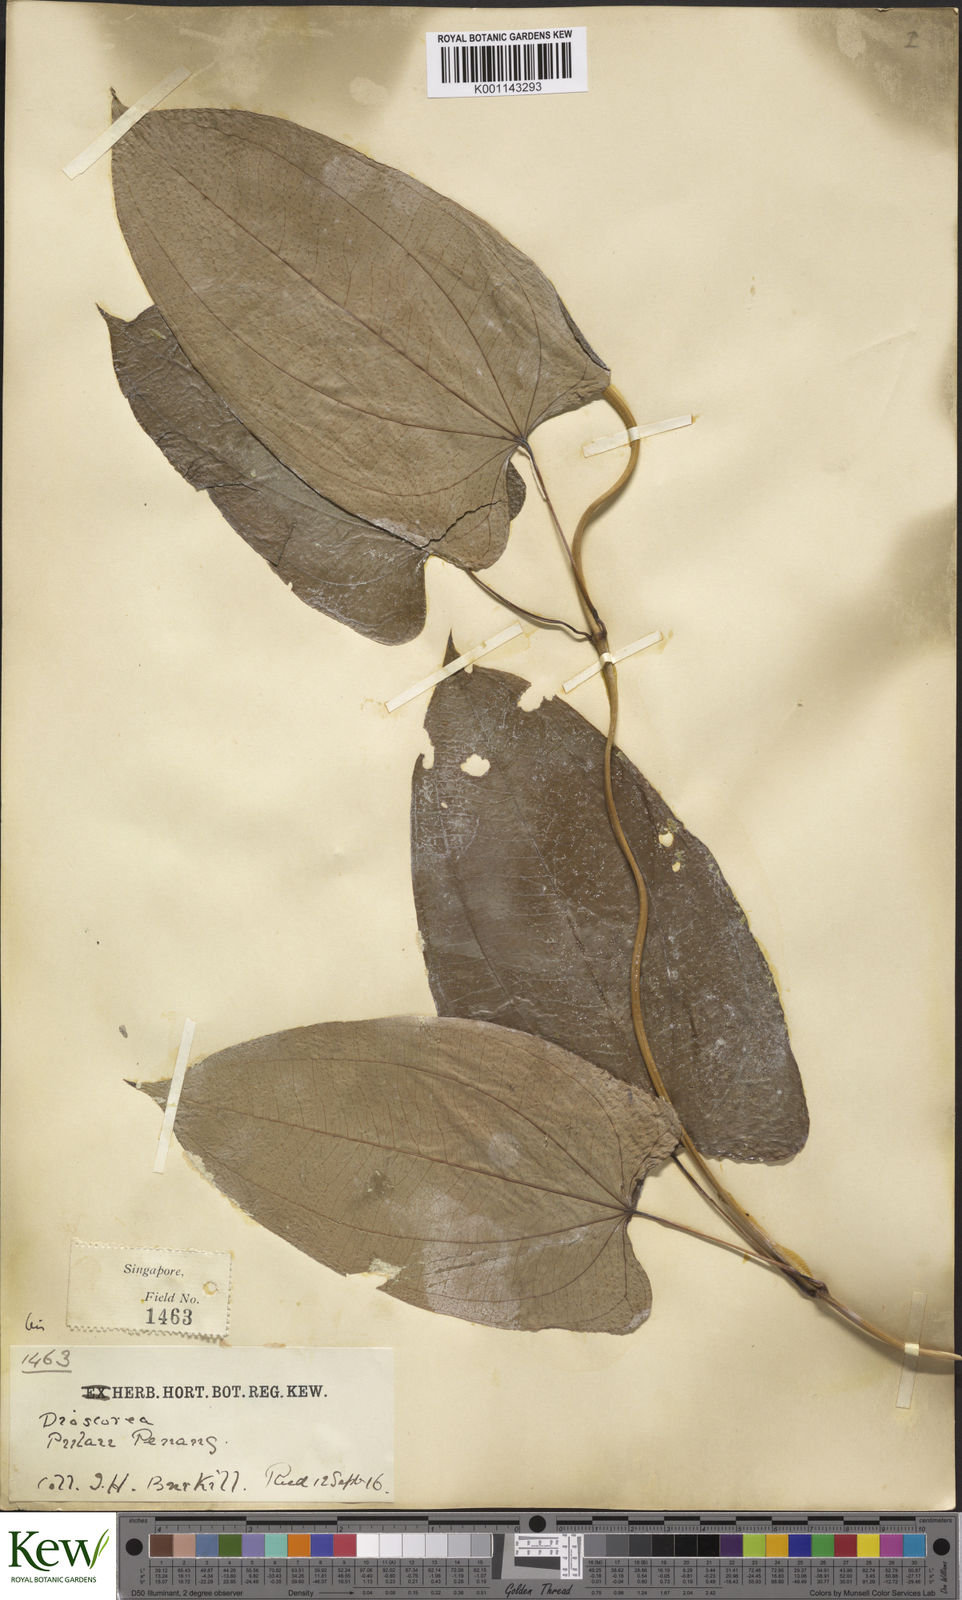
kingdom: Plantae
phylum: Tracheophyta
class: Liliopsida
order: Dioscoreales
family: Dioscoreaceae
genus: Dioscorea
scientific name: Dioscorea glabra
